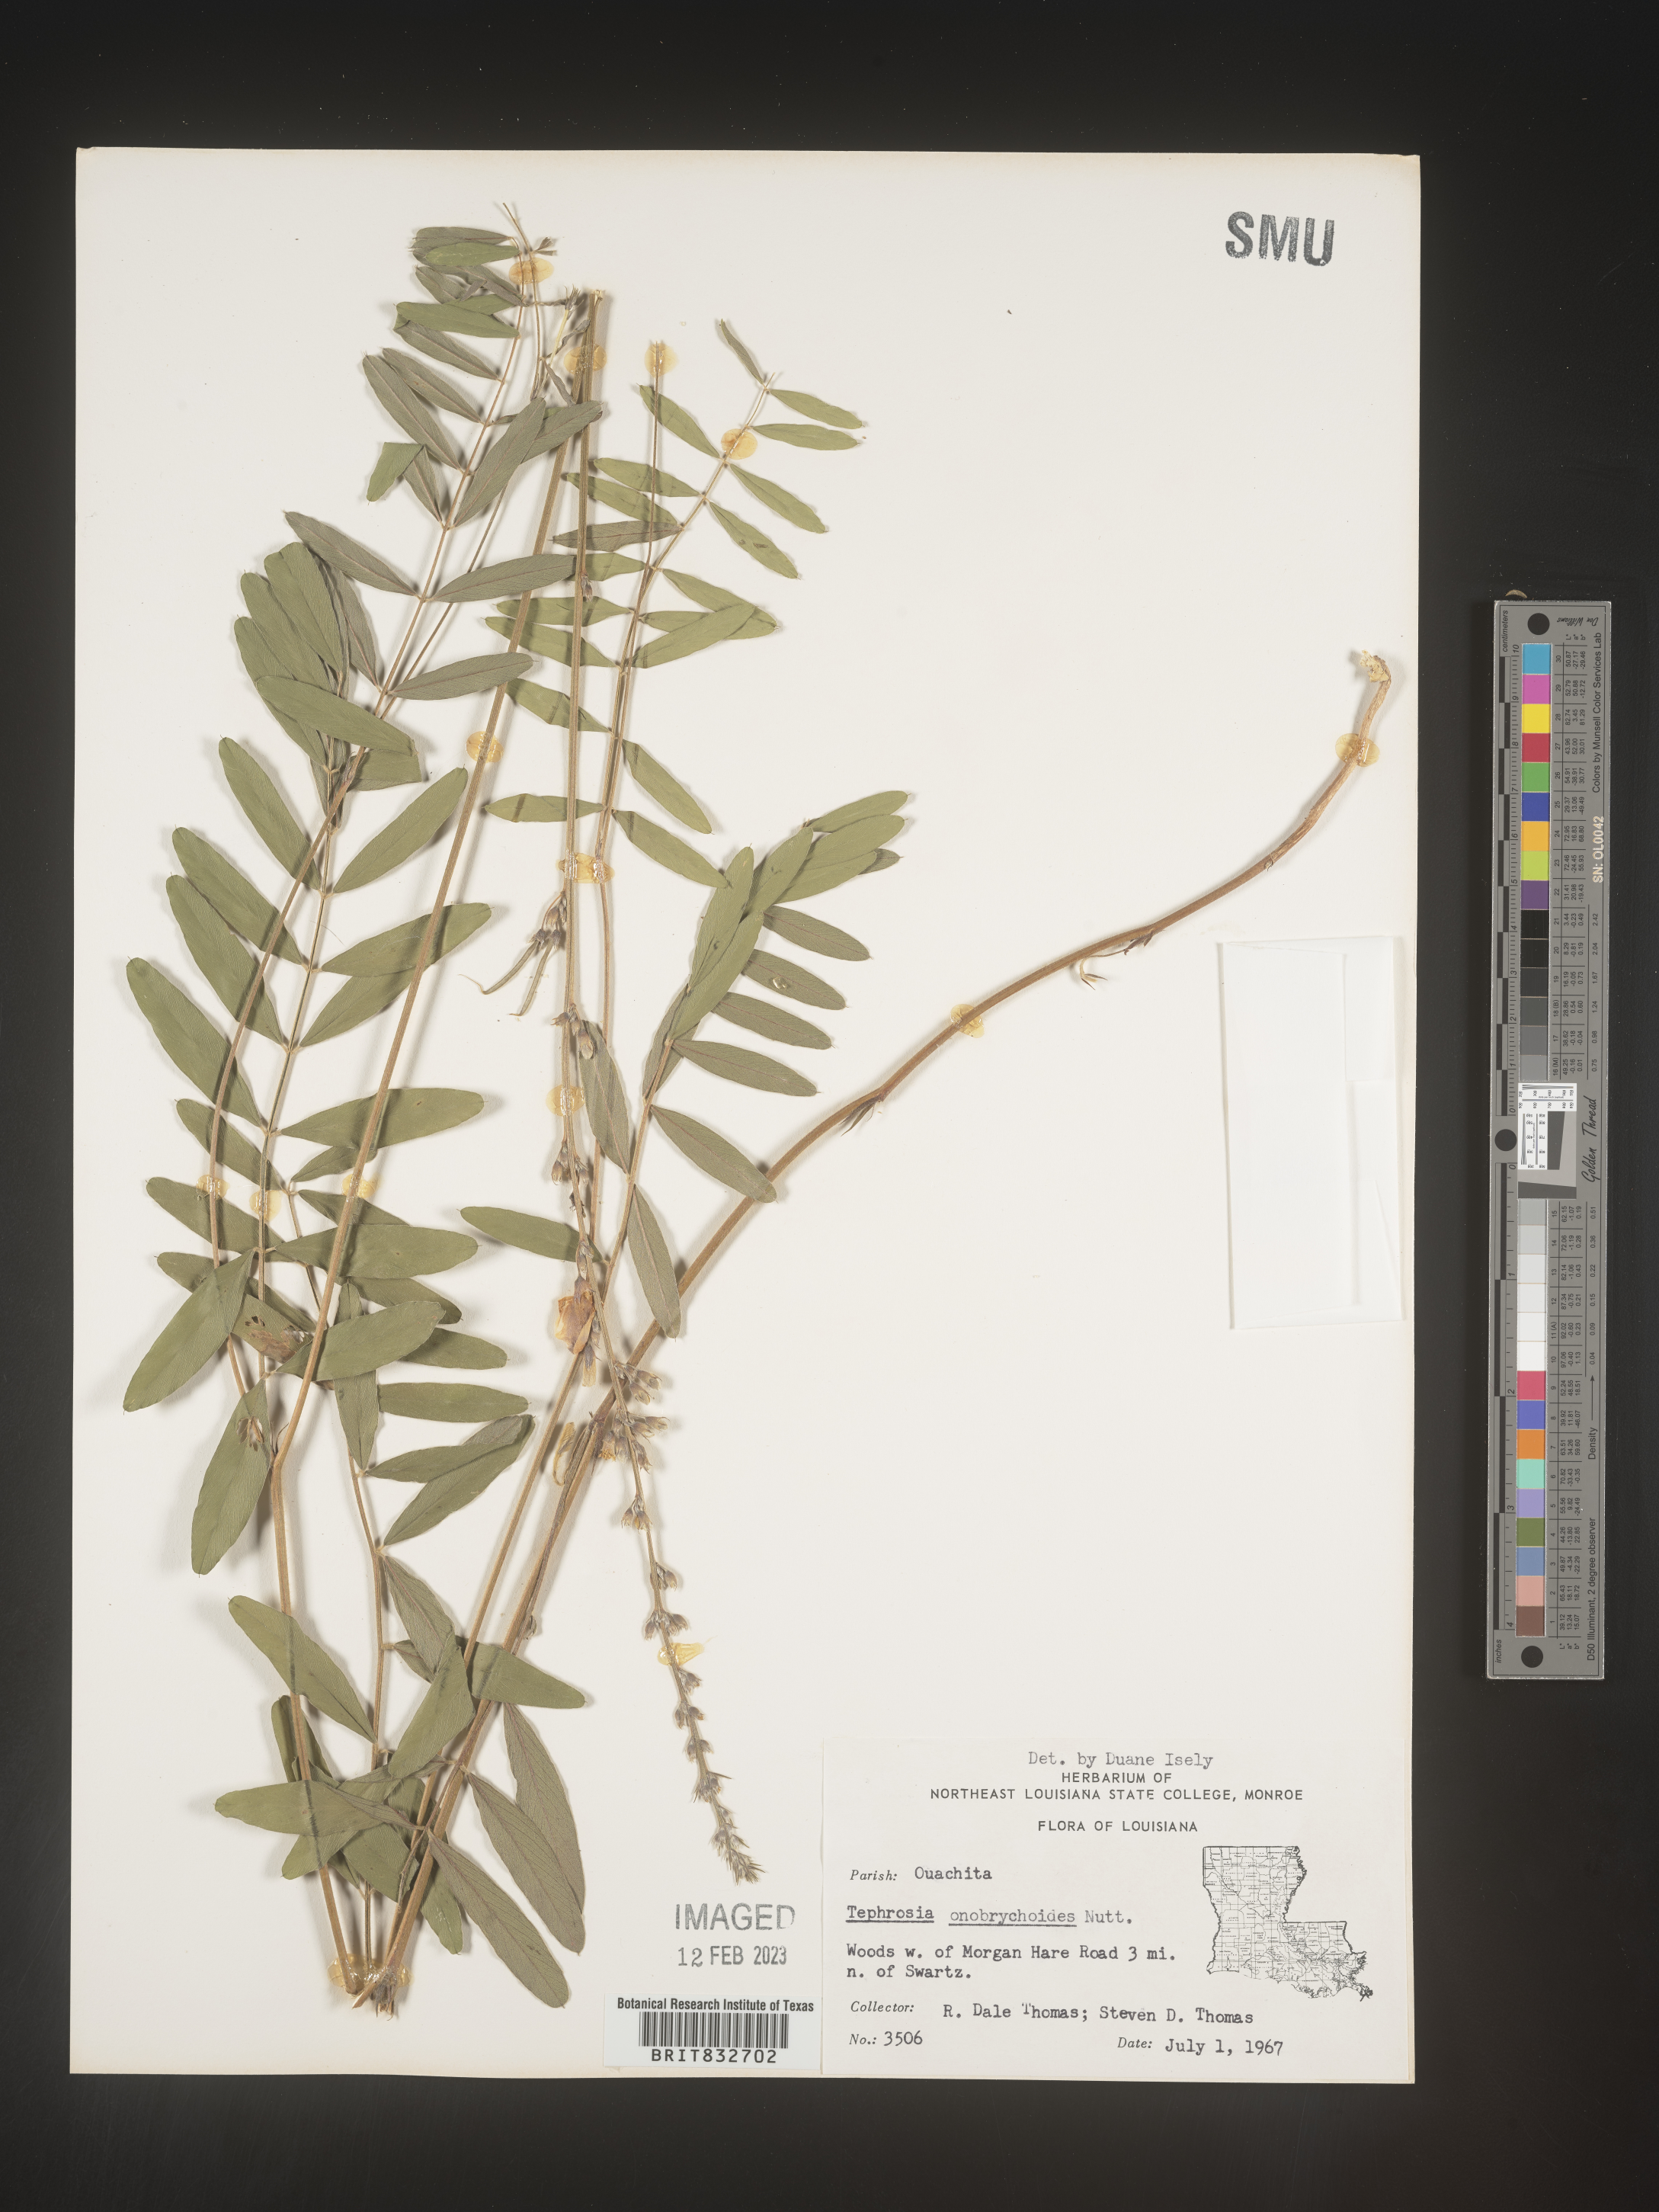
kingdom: Plantae
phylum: Tracheophyta
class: Magnoliopsida
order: Fabales
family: Fabaceae
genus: Tephrosia
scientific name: Tephrosia onobrychoides
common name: Multi-bloom hoary-pea
